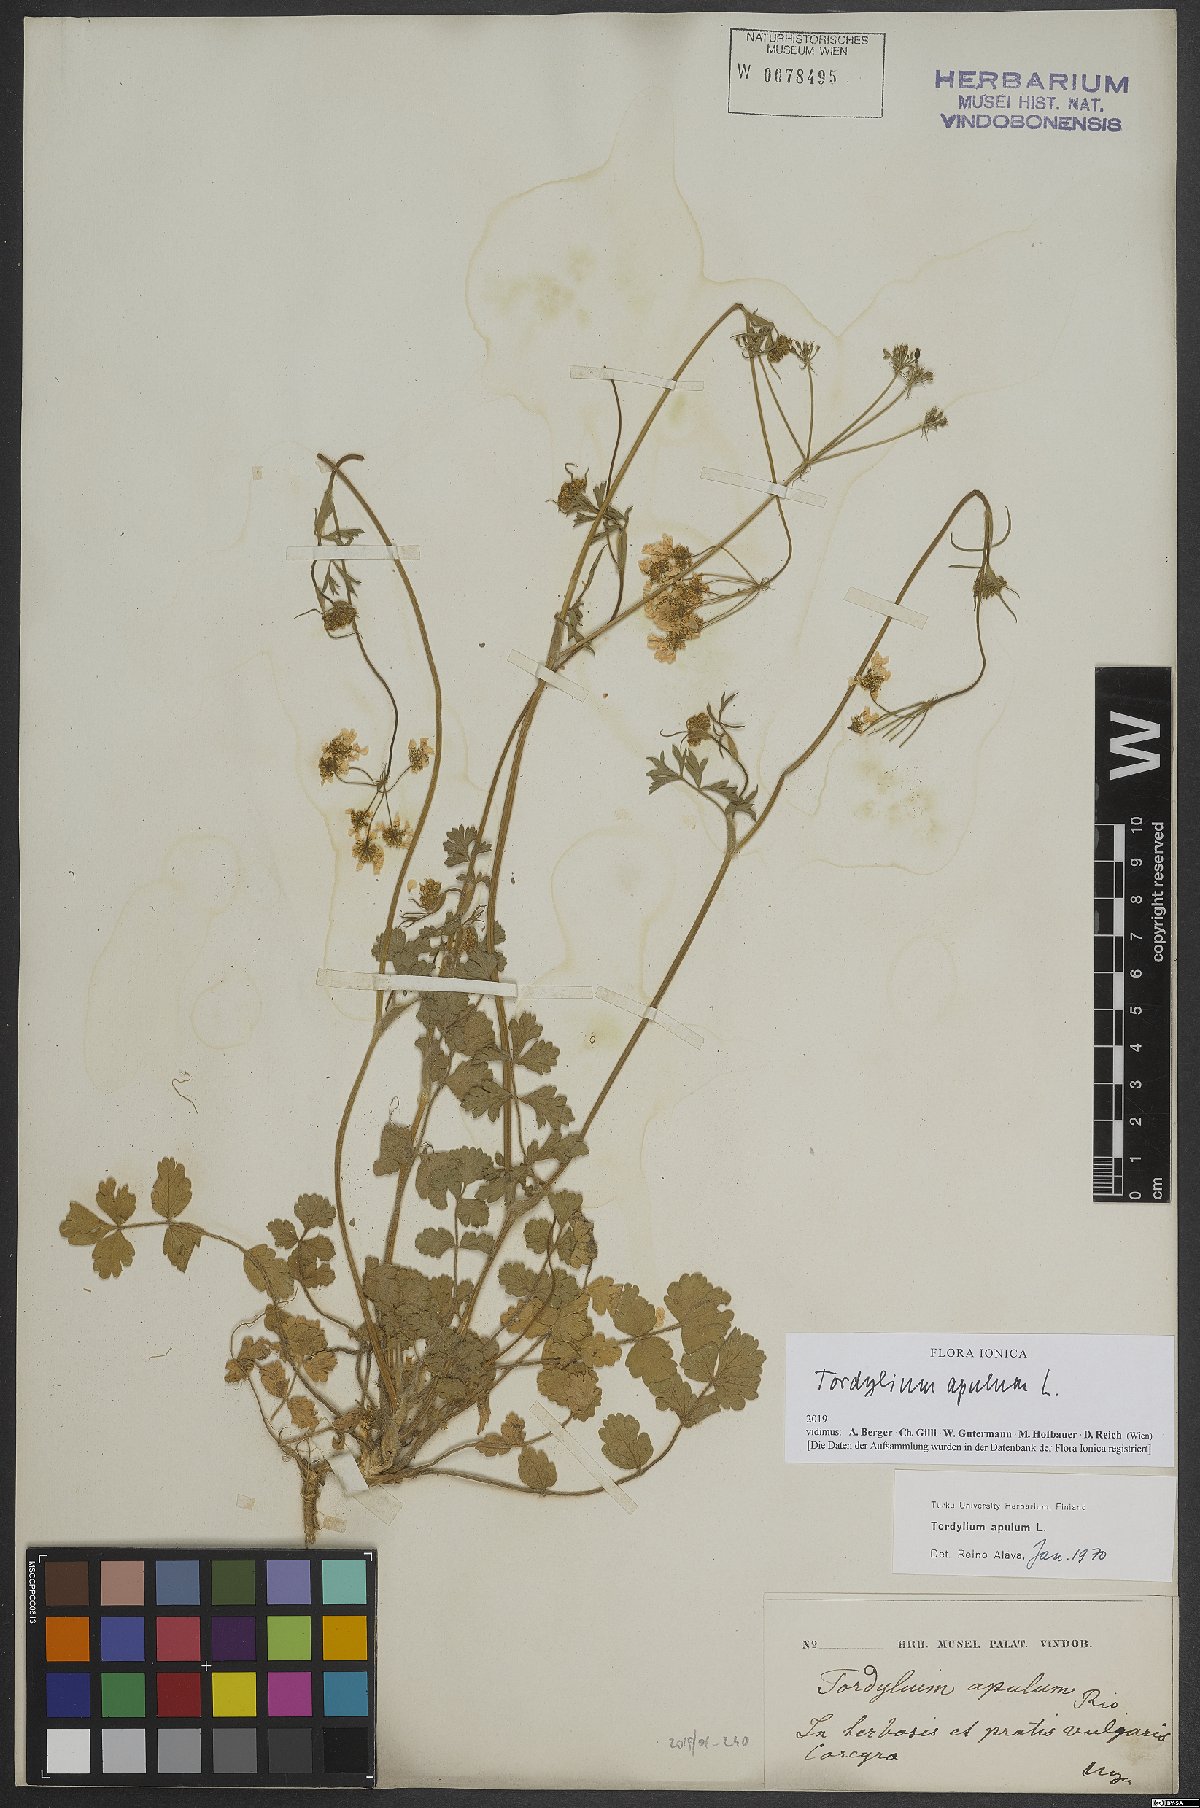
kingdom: Plantae
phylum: Tracheophyta
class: Magnoliopsida
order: Apiales
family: Apiaceae
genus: Tordylium
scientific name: Tordylium apulum
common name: Mediterranean hartwort
